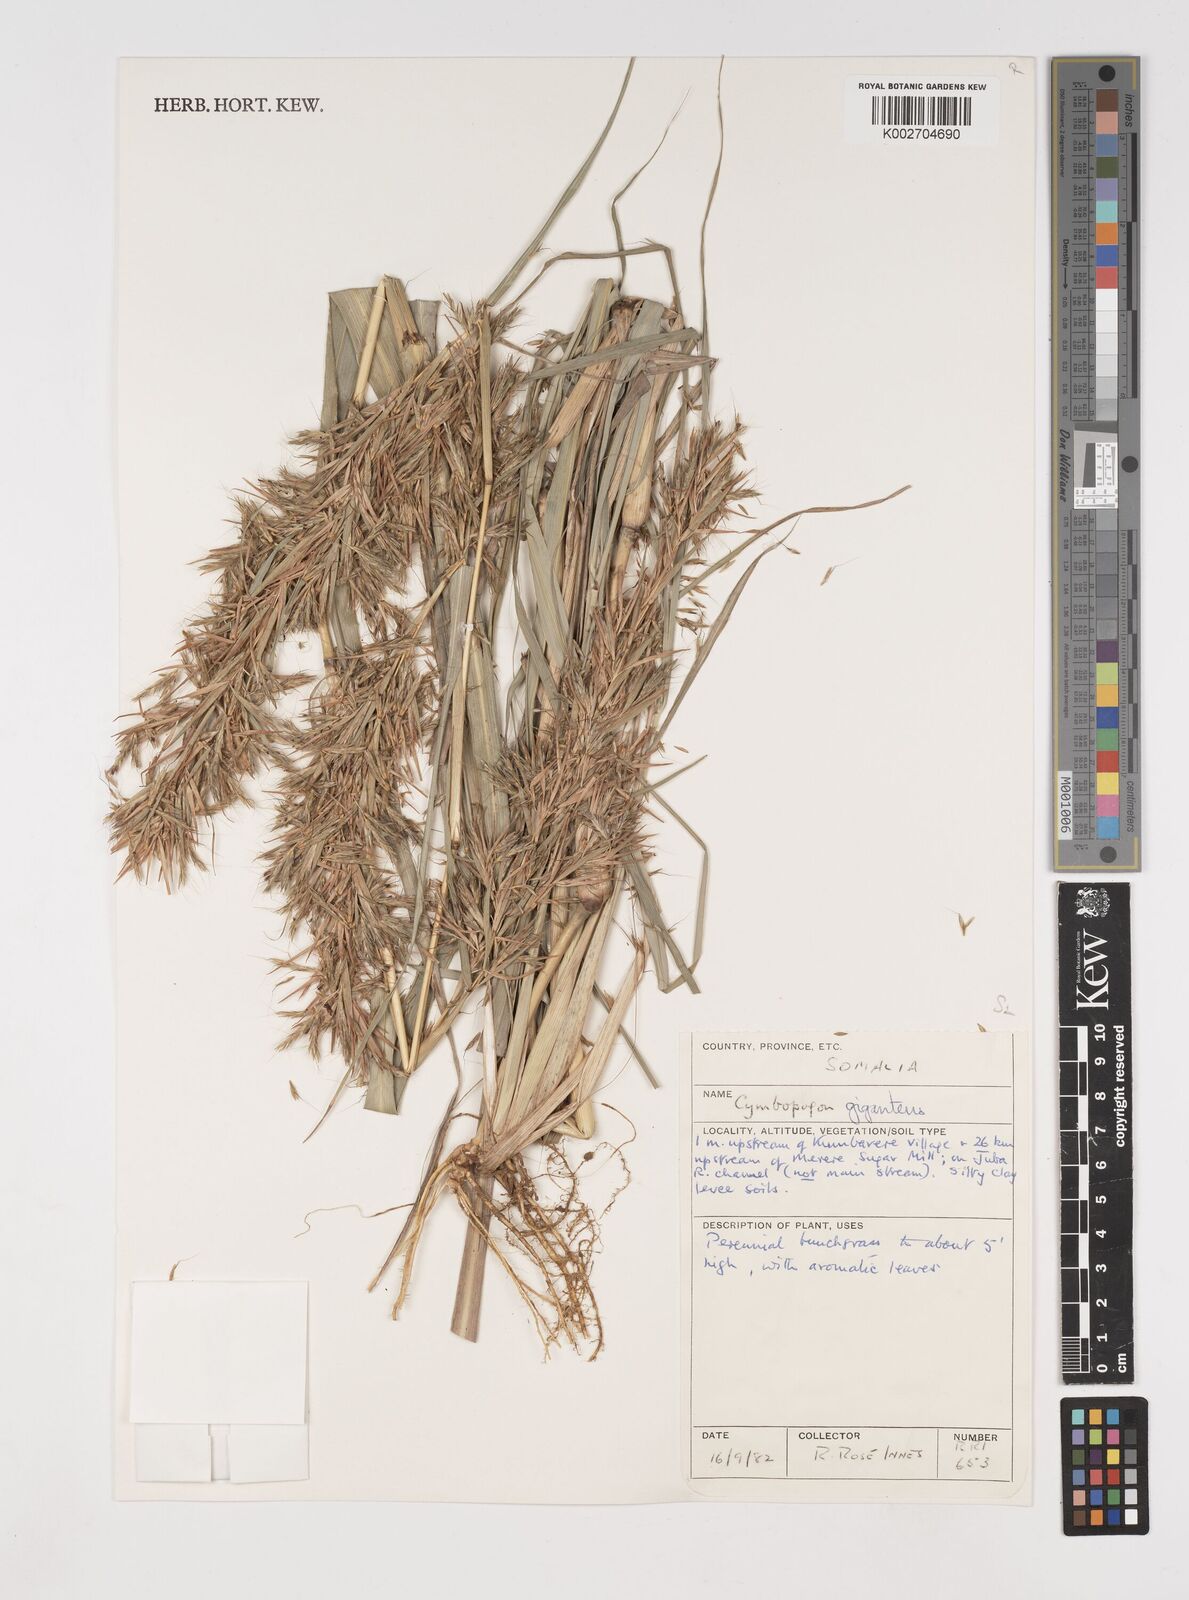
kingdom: Plantae
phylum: Tracheophyta
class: Liliopsida
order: Poales
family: Poaceae
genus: Cymbopogon
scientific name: Cymbopogon
